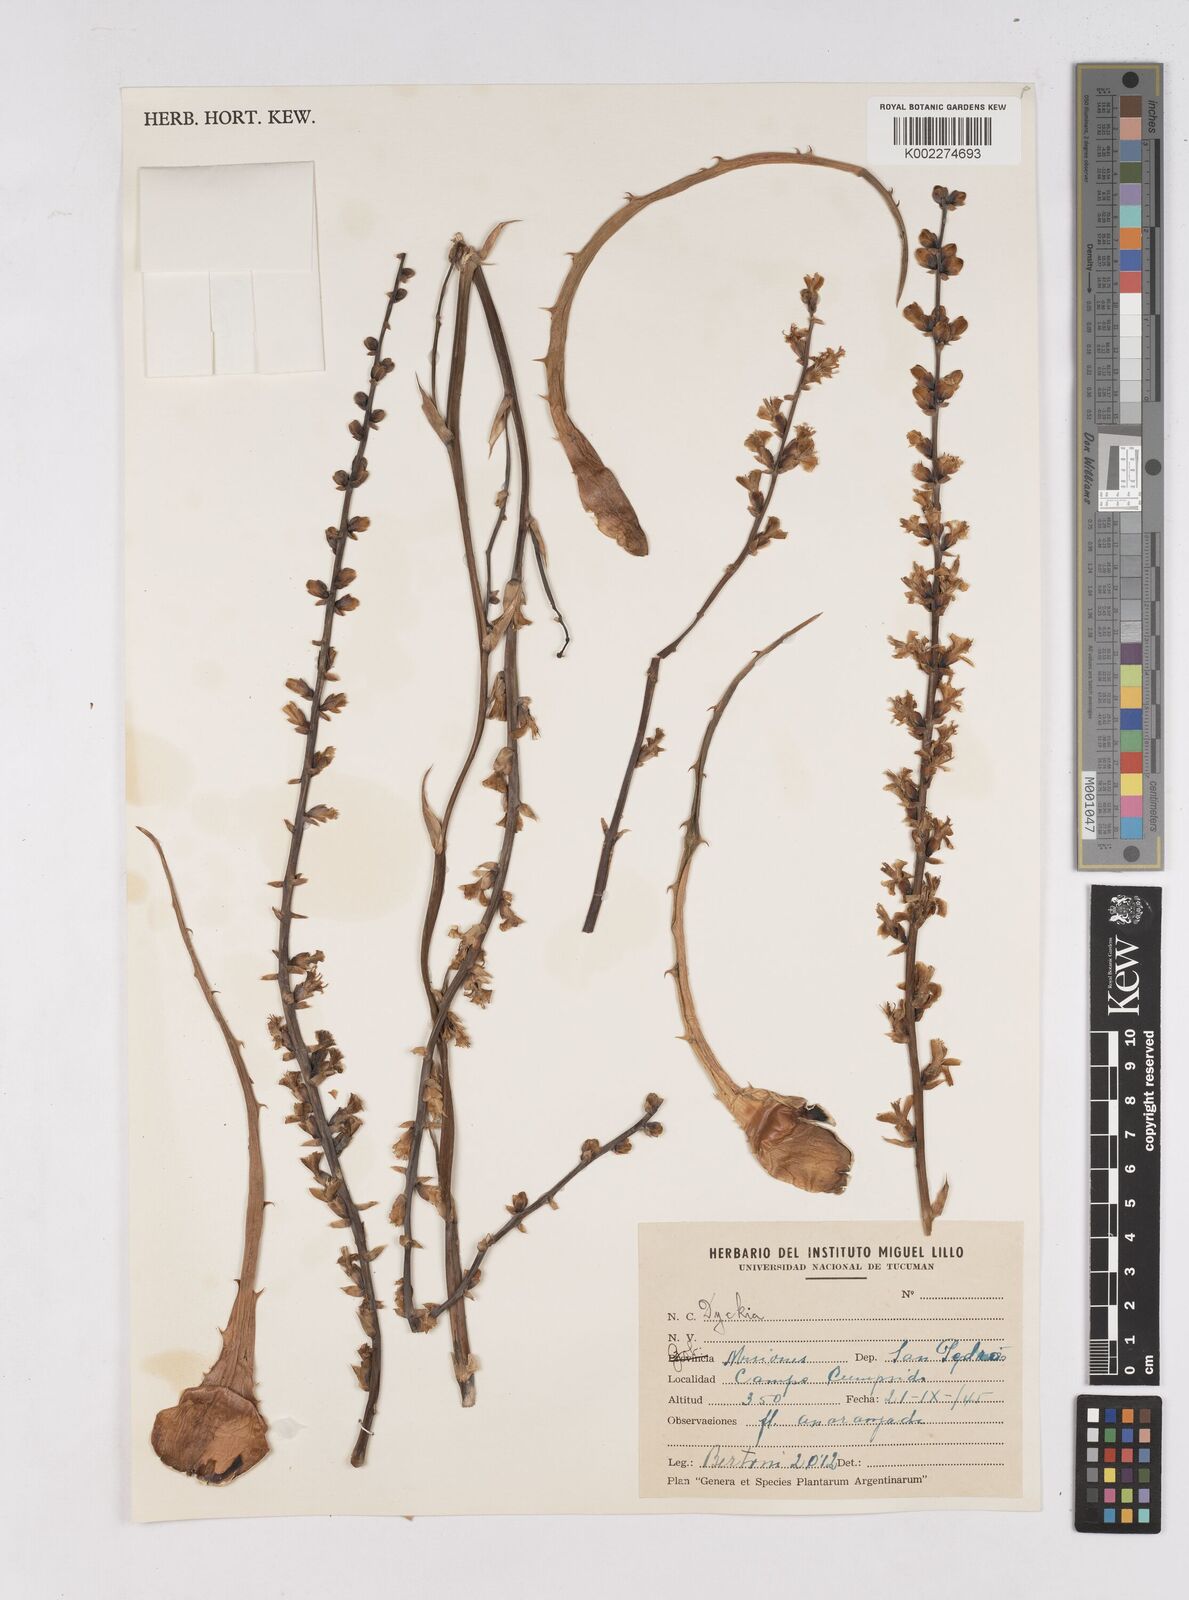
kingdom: Plantae
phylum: Tracheophyta
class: Liliopsida
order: Poales
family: Bromeliaceae
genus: Dyckia
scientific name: Dyckia
